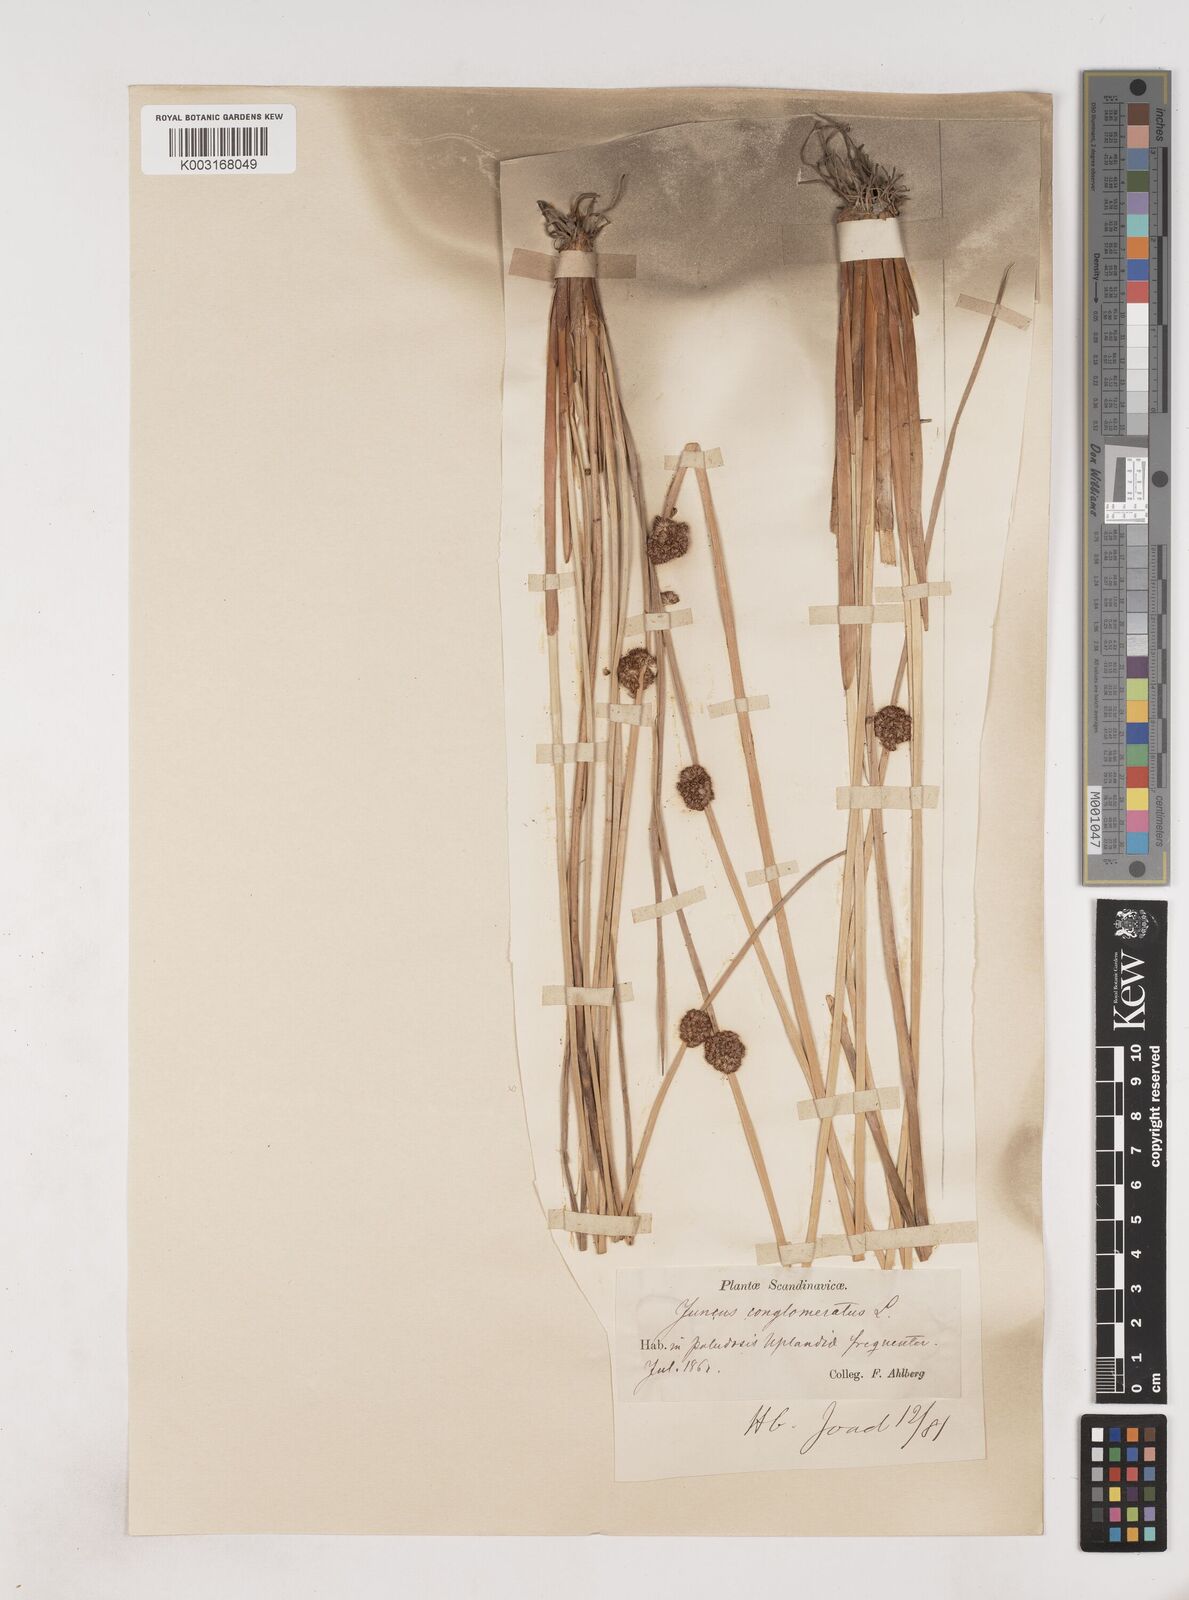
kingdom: Plantae
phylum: Tracheophyta
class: Liliopsida
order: Poales
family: Juncaceae
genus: Juncus
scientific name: Juncus conglomeratus
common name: Compact rush
